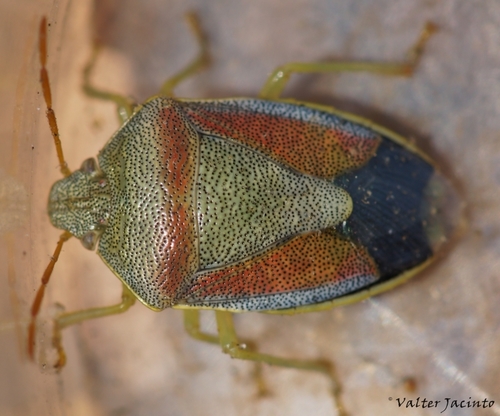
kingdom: Animalia
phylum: Arthropoda
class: Insecta
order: Hemiptera
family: Pentatomidae
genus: Piezodorus
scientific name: Piezodorus lituratus
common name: Stink bug
